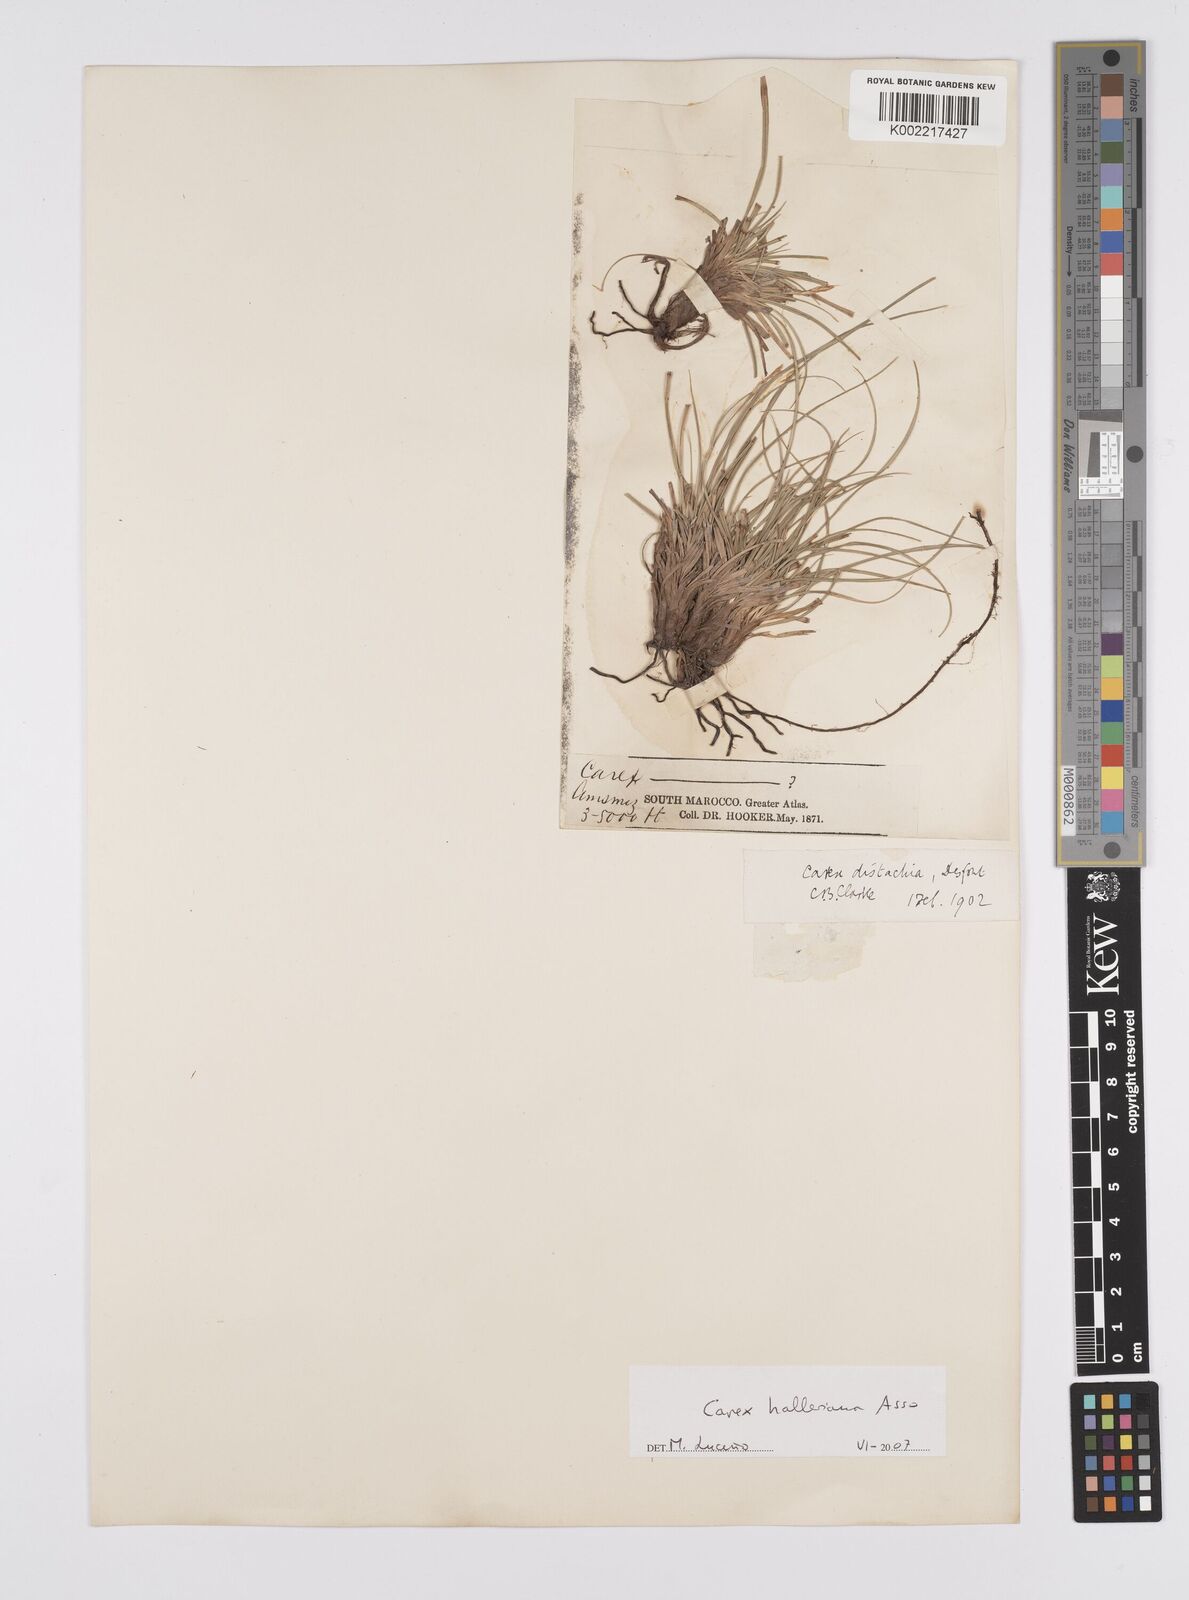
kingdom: Plantae
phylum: Tracheophyta
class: Liliopsida
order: Poales
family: Cyperaceae
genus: Carex
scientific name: Carex halleriana
